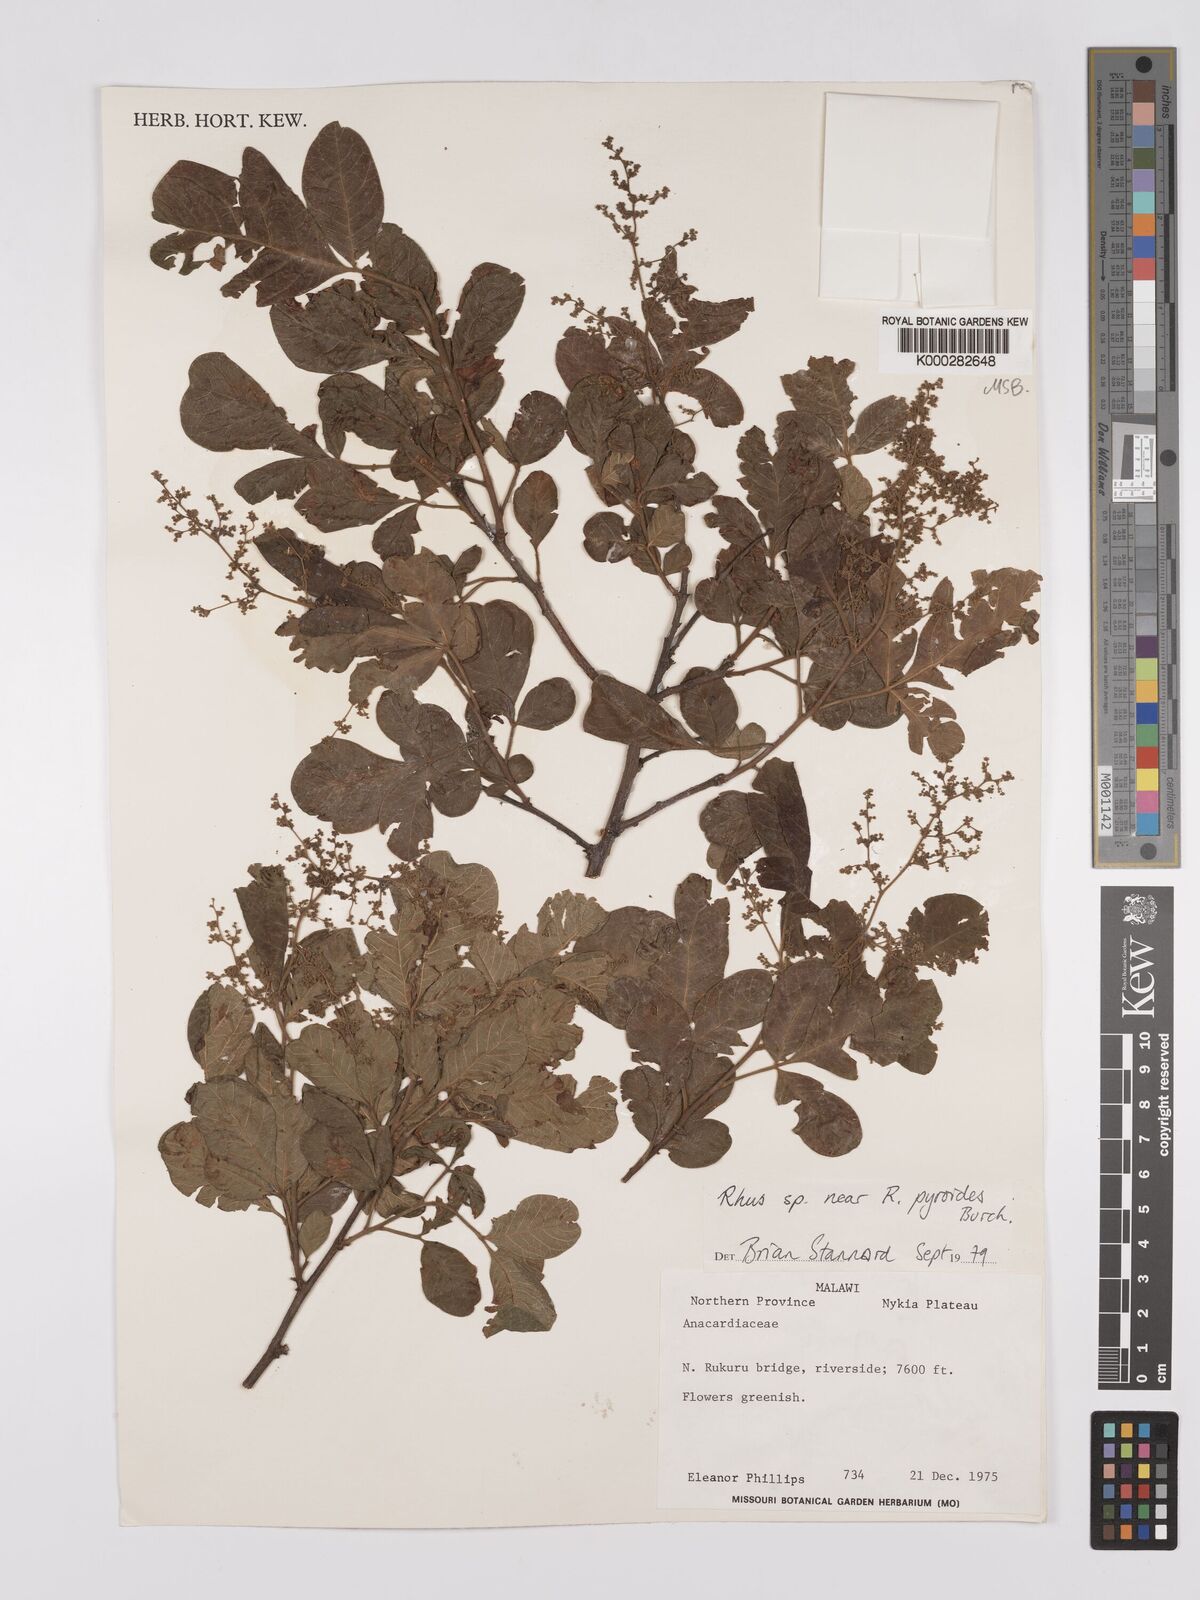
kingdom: Plantae
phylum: Tracheophyta
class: Magnoliopsida
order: Sapindales
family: Anacardiaceae
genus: Searsia
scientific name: Searsia pyroides
